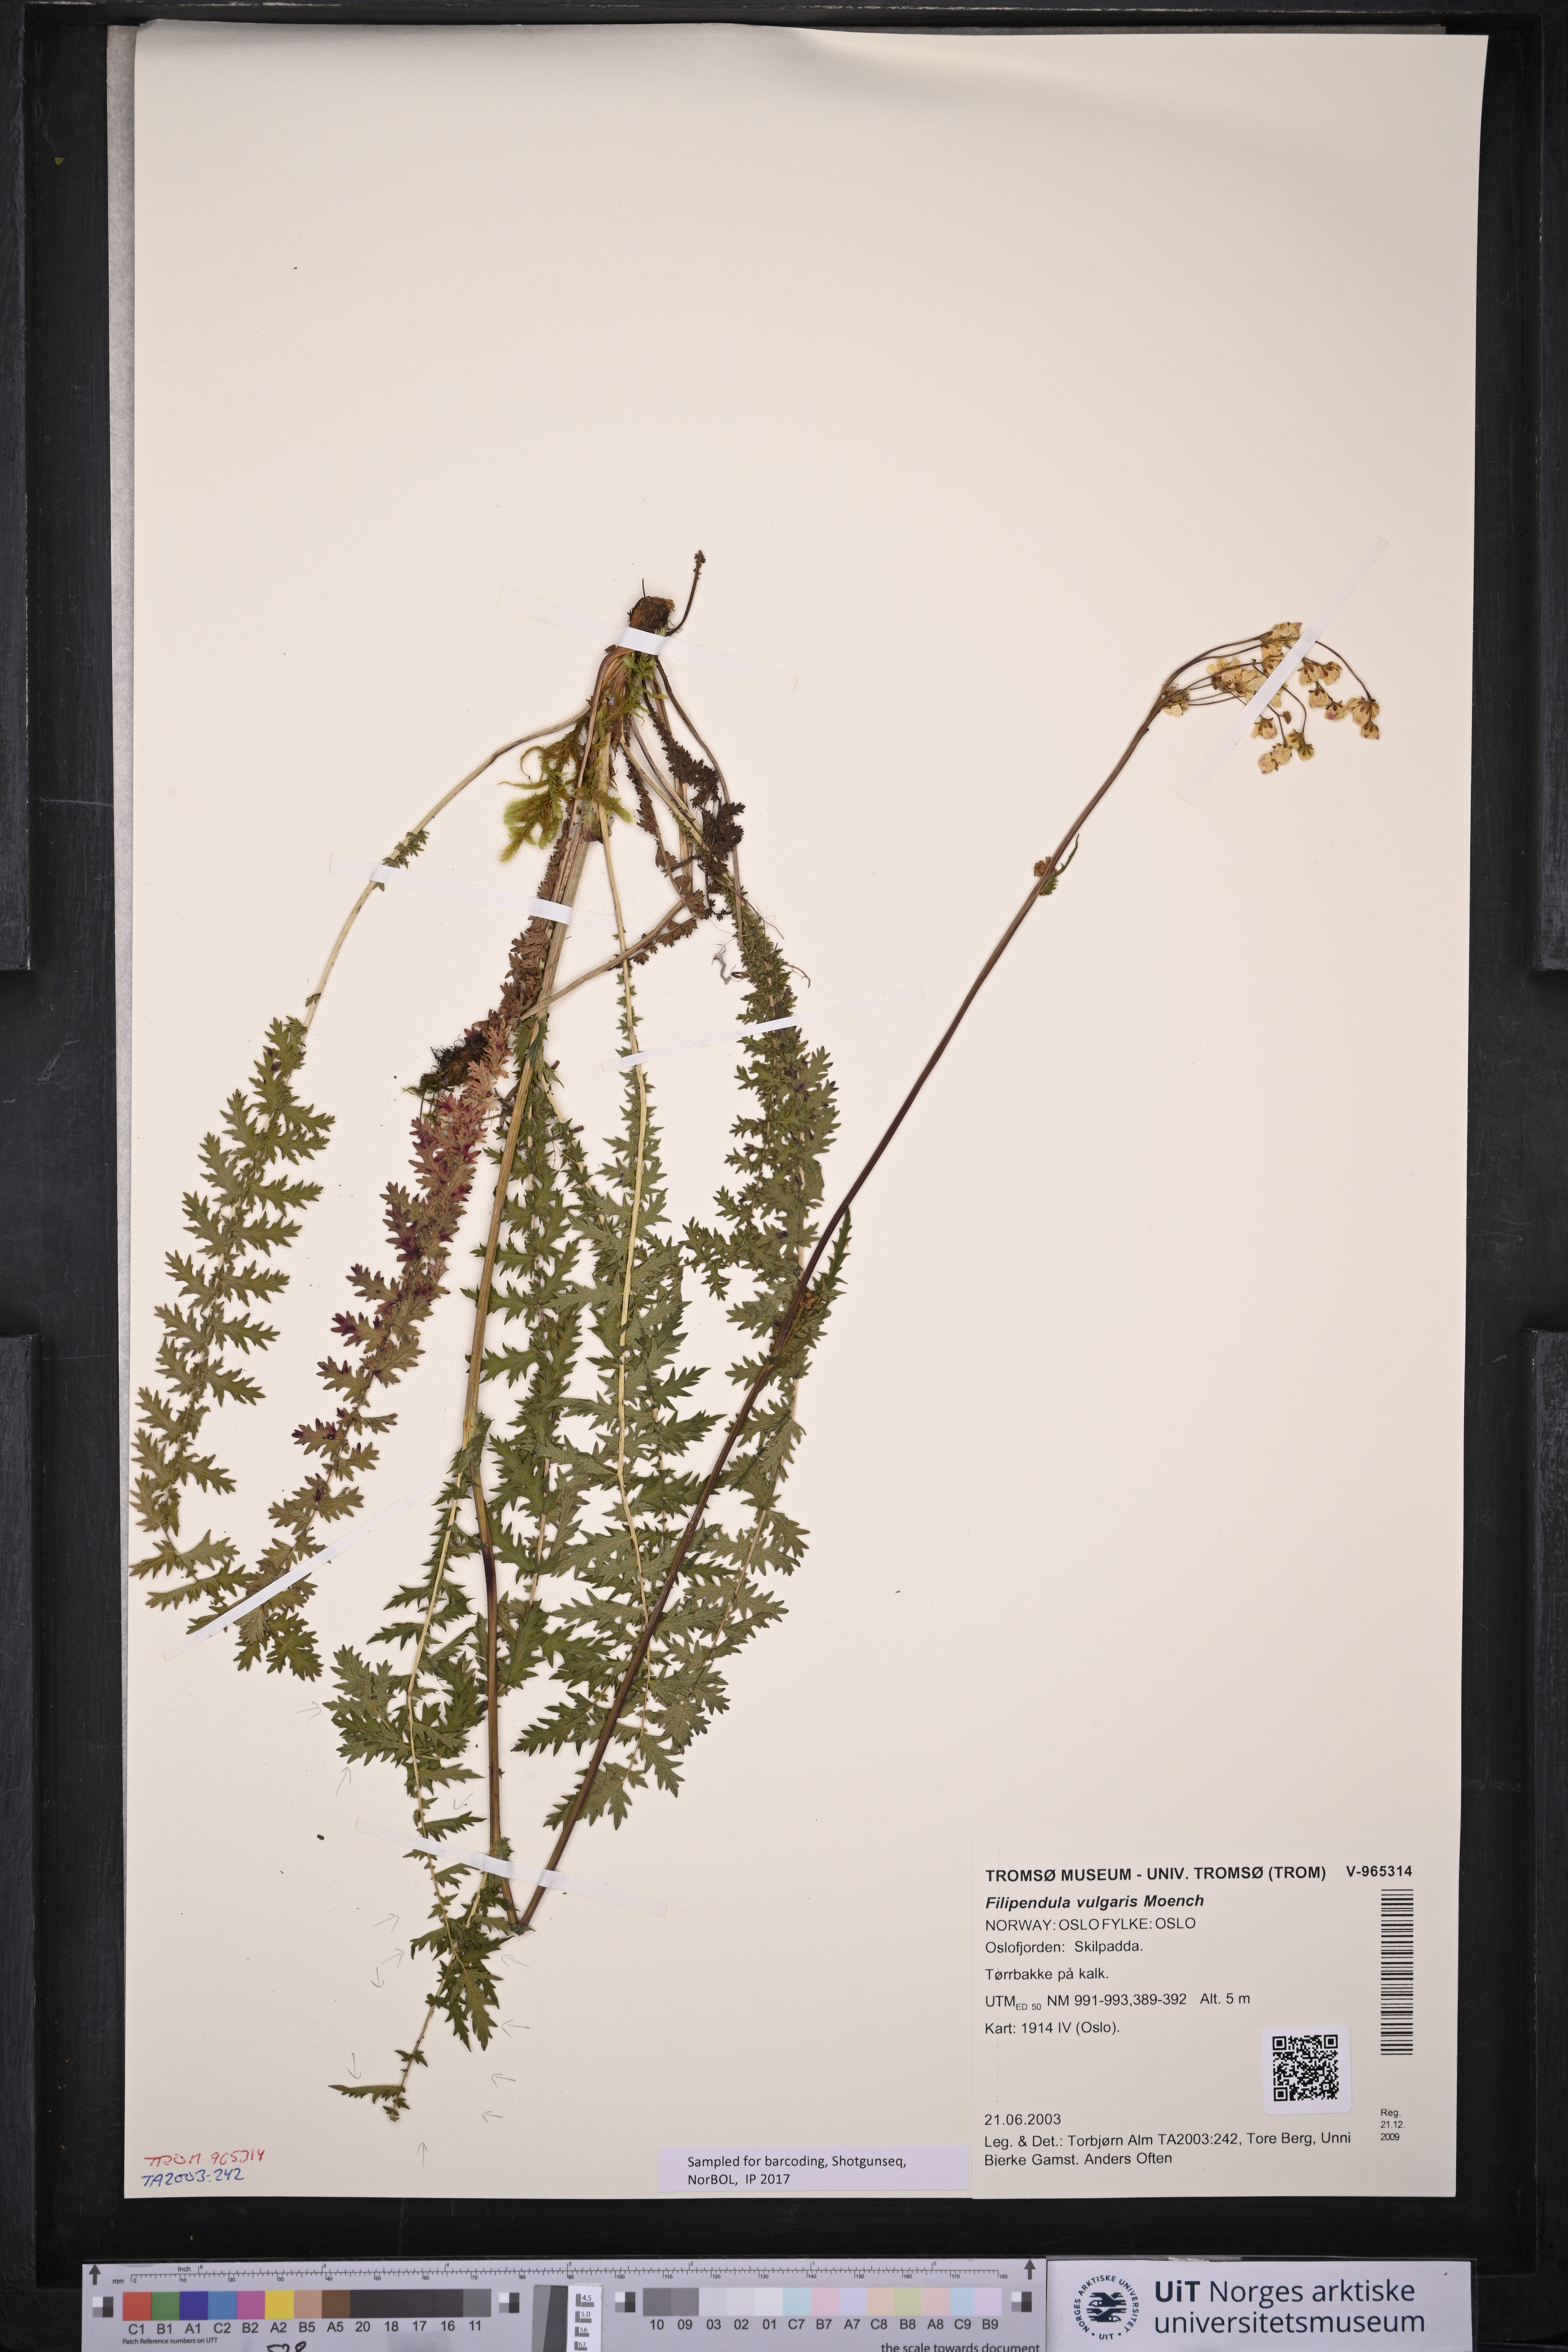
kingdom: Plantae
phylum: Tracheophyta
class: Magnoliopsida
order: Rosales
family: Rosaceae
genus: Filipendula
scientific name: Filipendula vulgaris
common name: Dropwort
